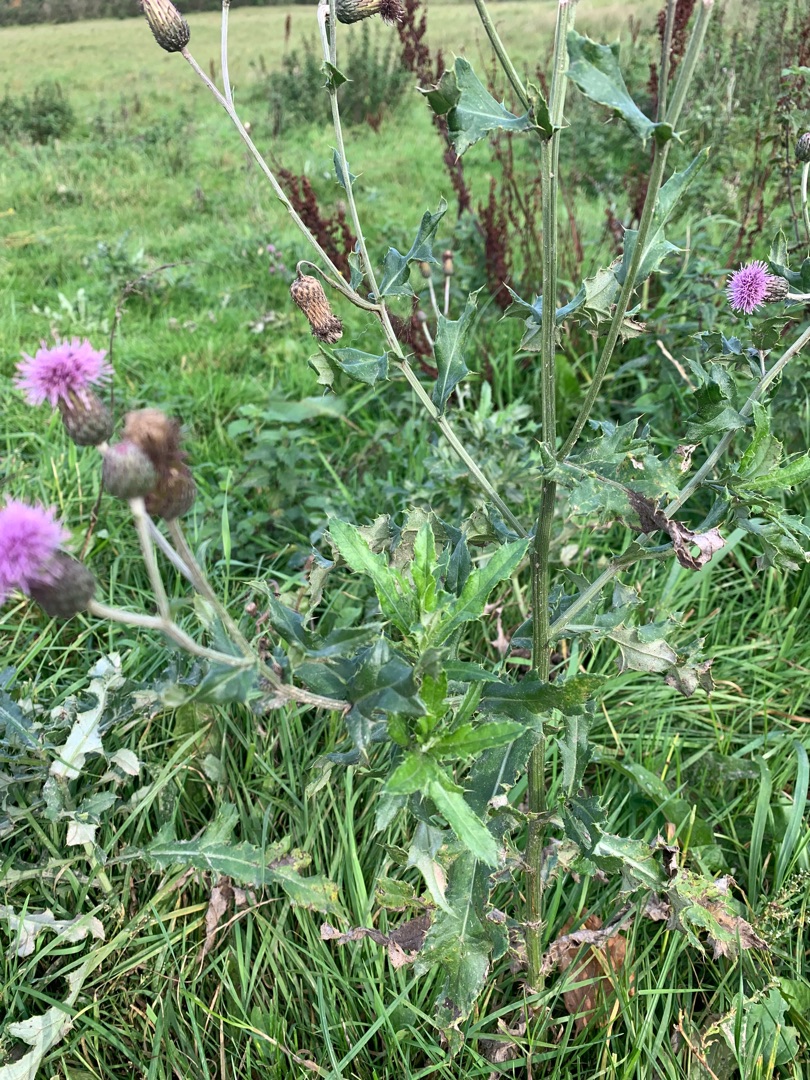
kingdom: Plantae
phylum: Tracheophyta
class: Magnoliopsida
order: Asterales
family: Asteraceae
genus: Cirsium
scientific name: Cirsium arvense
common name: Ager-tidsel
